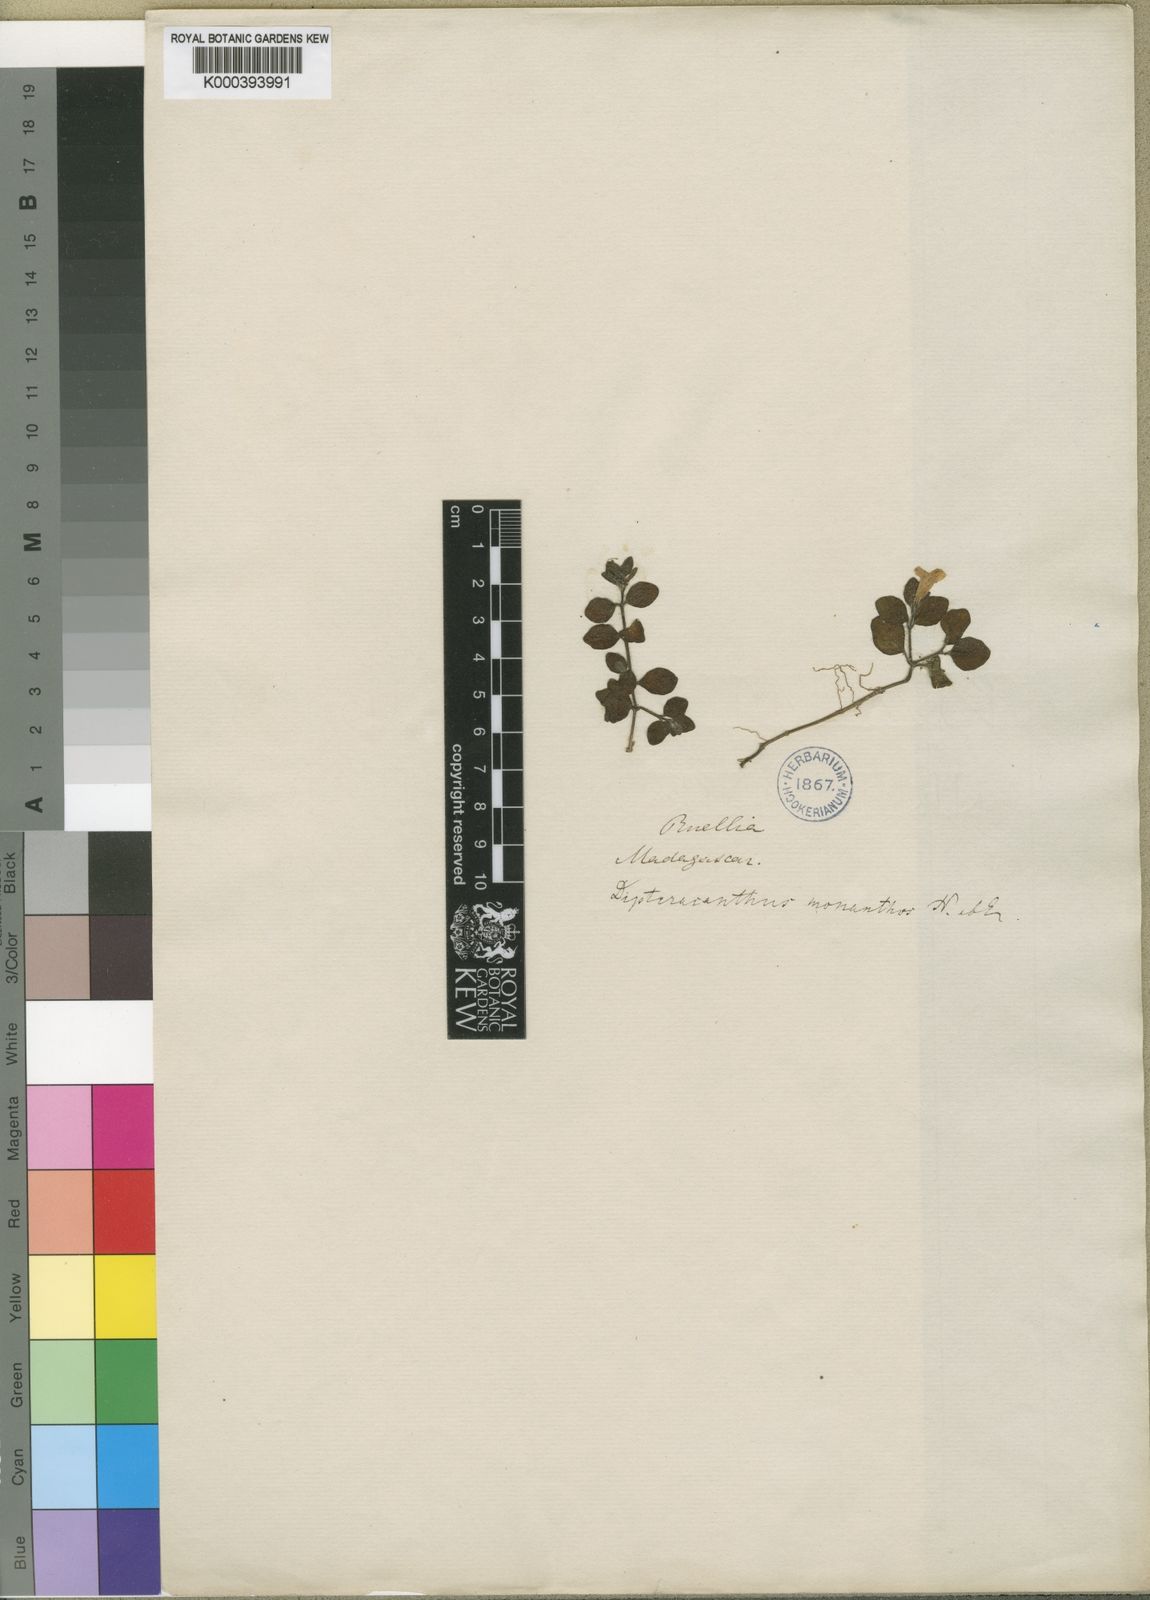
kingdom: Plantae
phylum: Tracheophyta
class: Magnoliopsida
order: Lamiales
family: Acanthaceae
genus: Ruellia
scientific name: Ruellia monanthos
